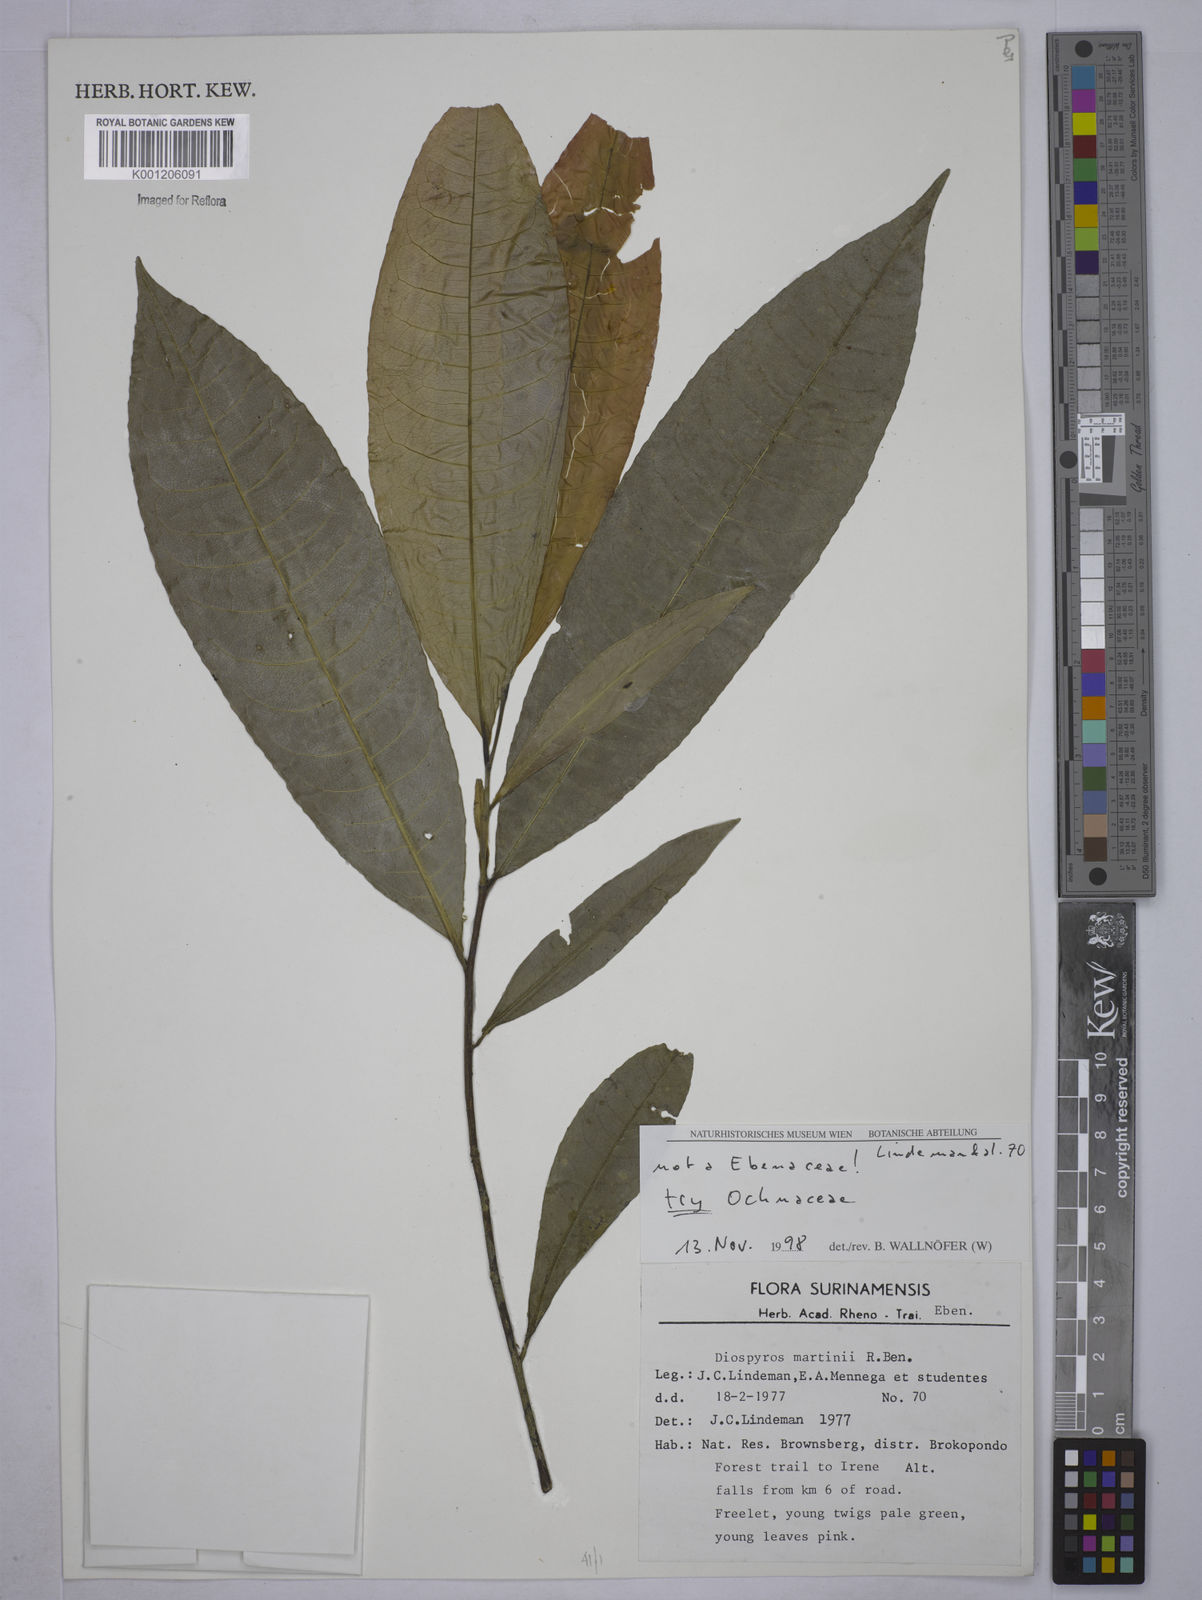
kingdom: Plantae
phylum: Tracheophyta
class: Magnoliopsida
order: Malpighiales
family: Ochnaceae
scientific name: Ochnaceae
